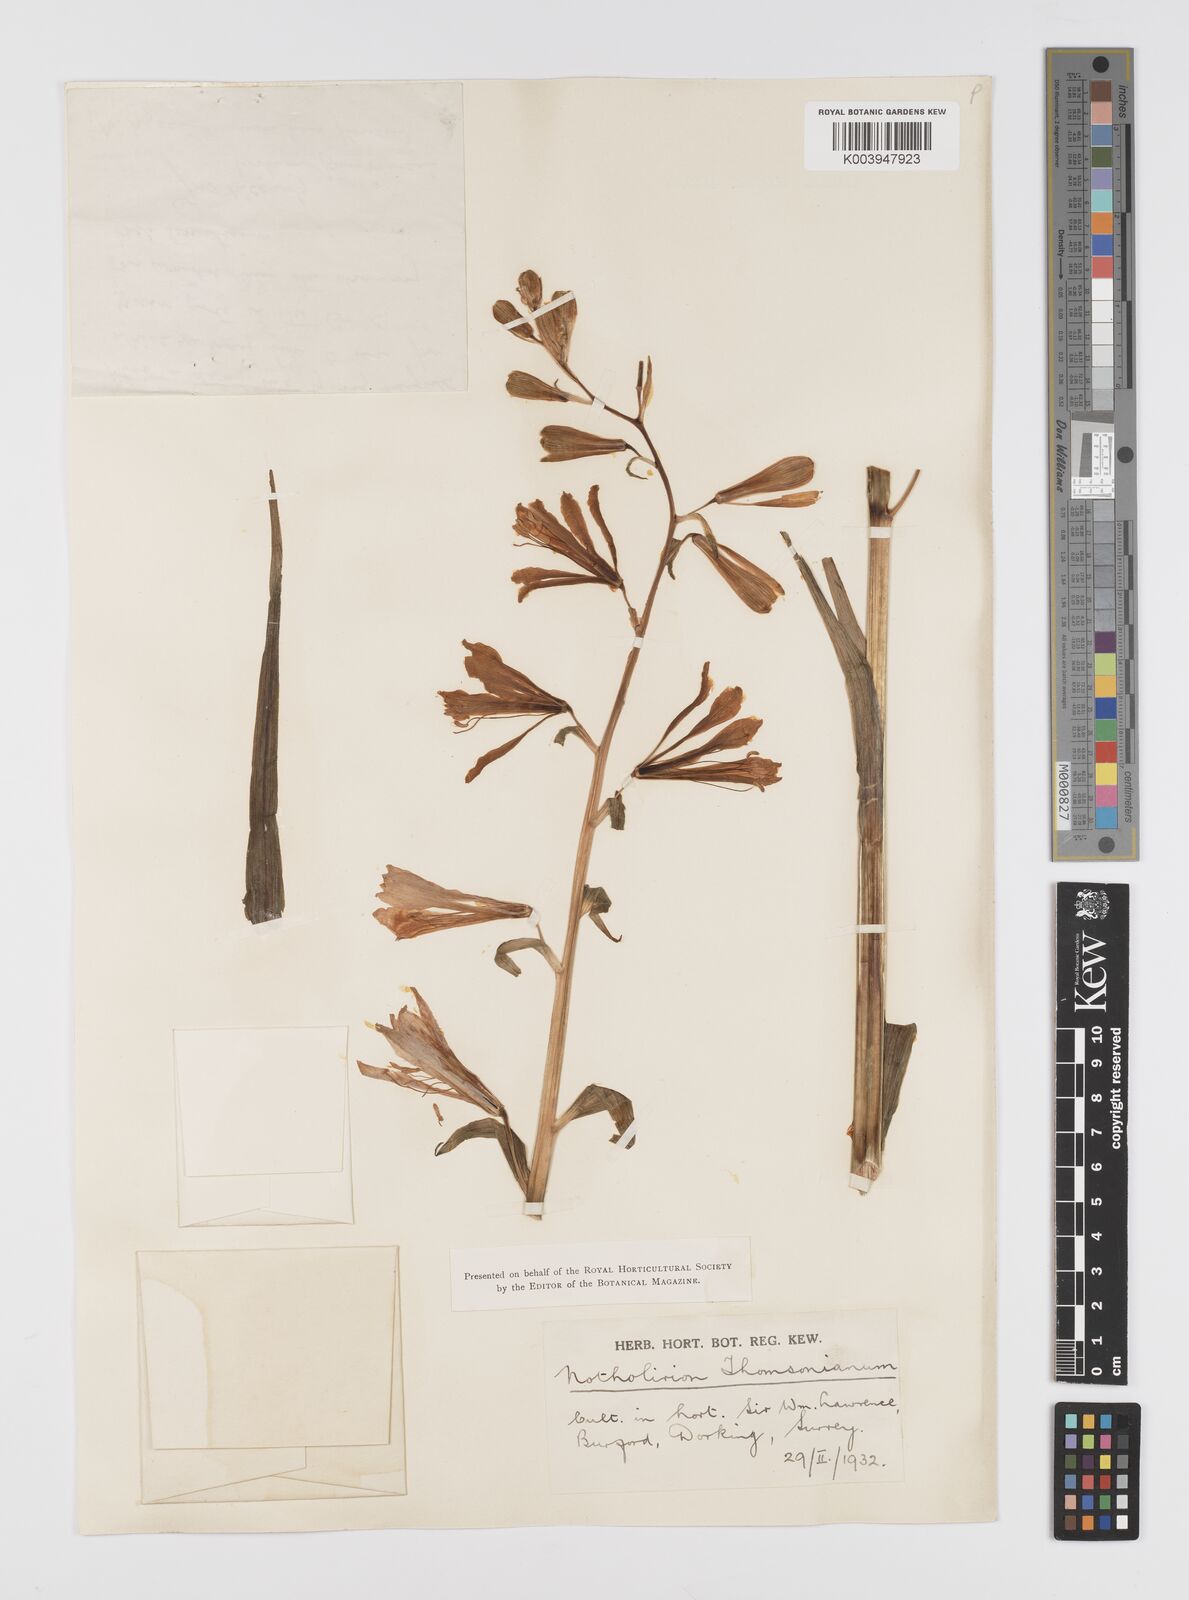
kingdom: Plantae
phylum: Tracheophyta
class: Liliopsida
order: Liliales
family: Liliaceae
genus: Notholirion
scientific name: Notholirion thomsonianum
